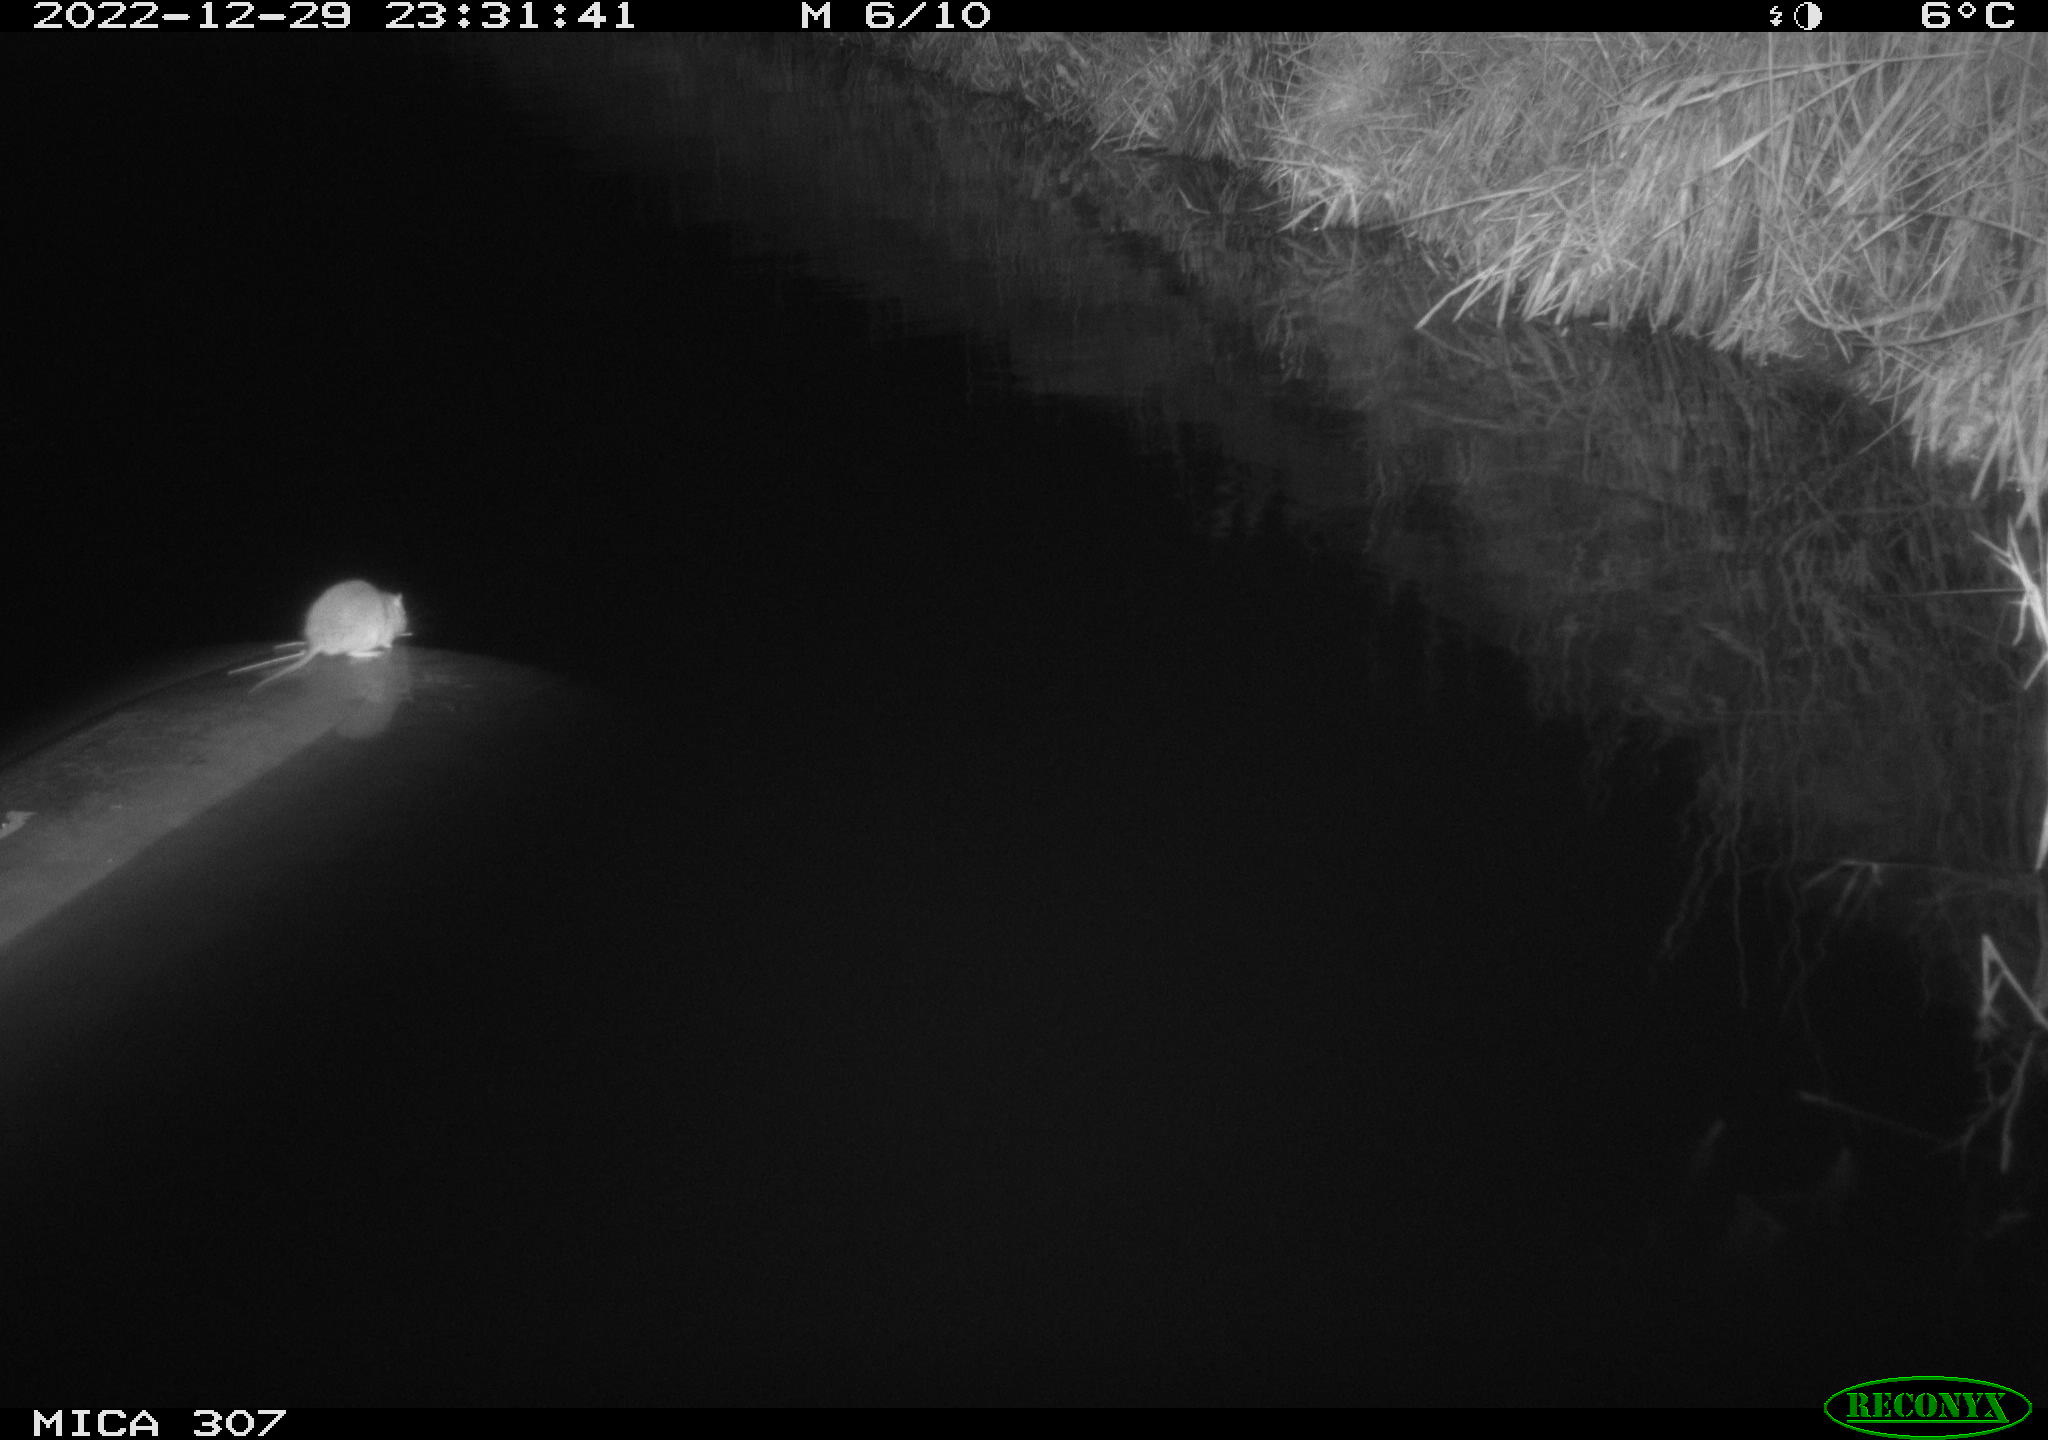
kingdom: Animalia
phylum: Chordata
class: Mammalia
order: Rodentia
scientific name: Rodentia
